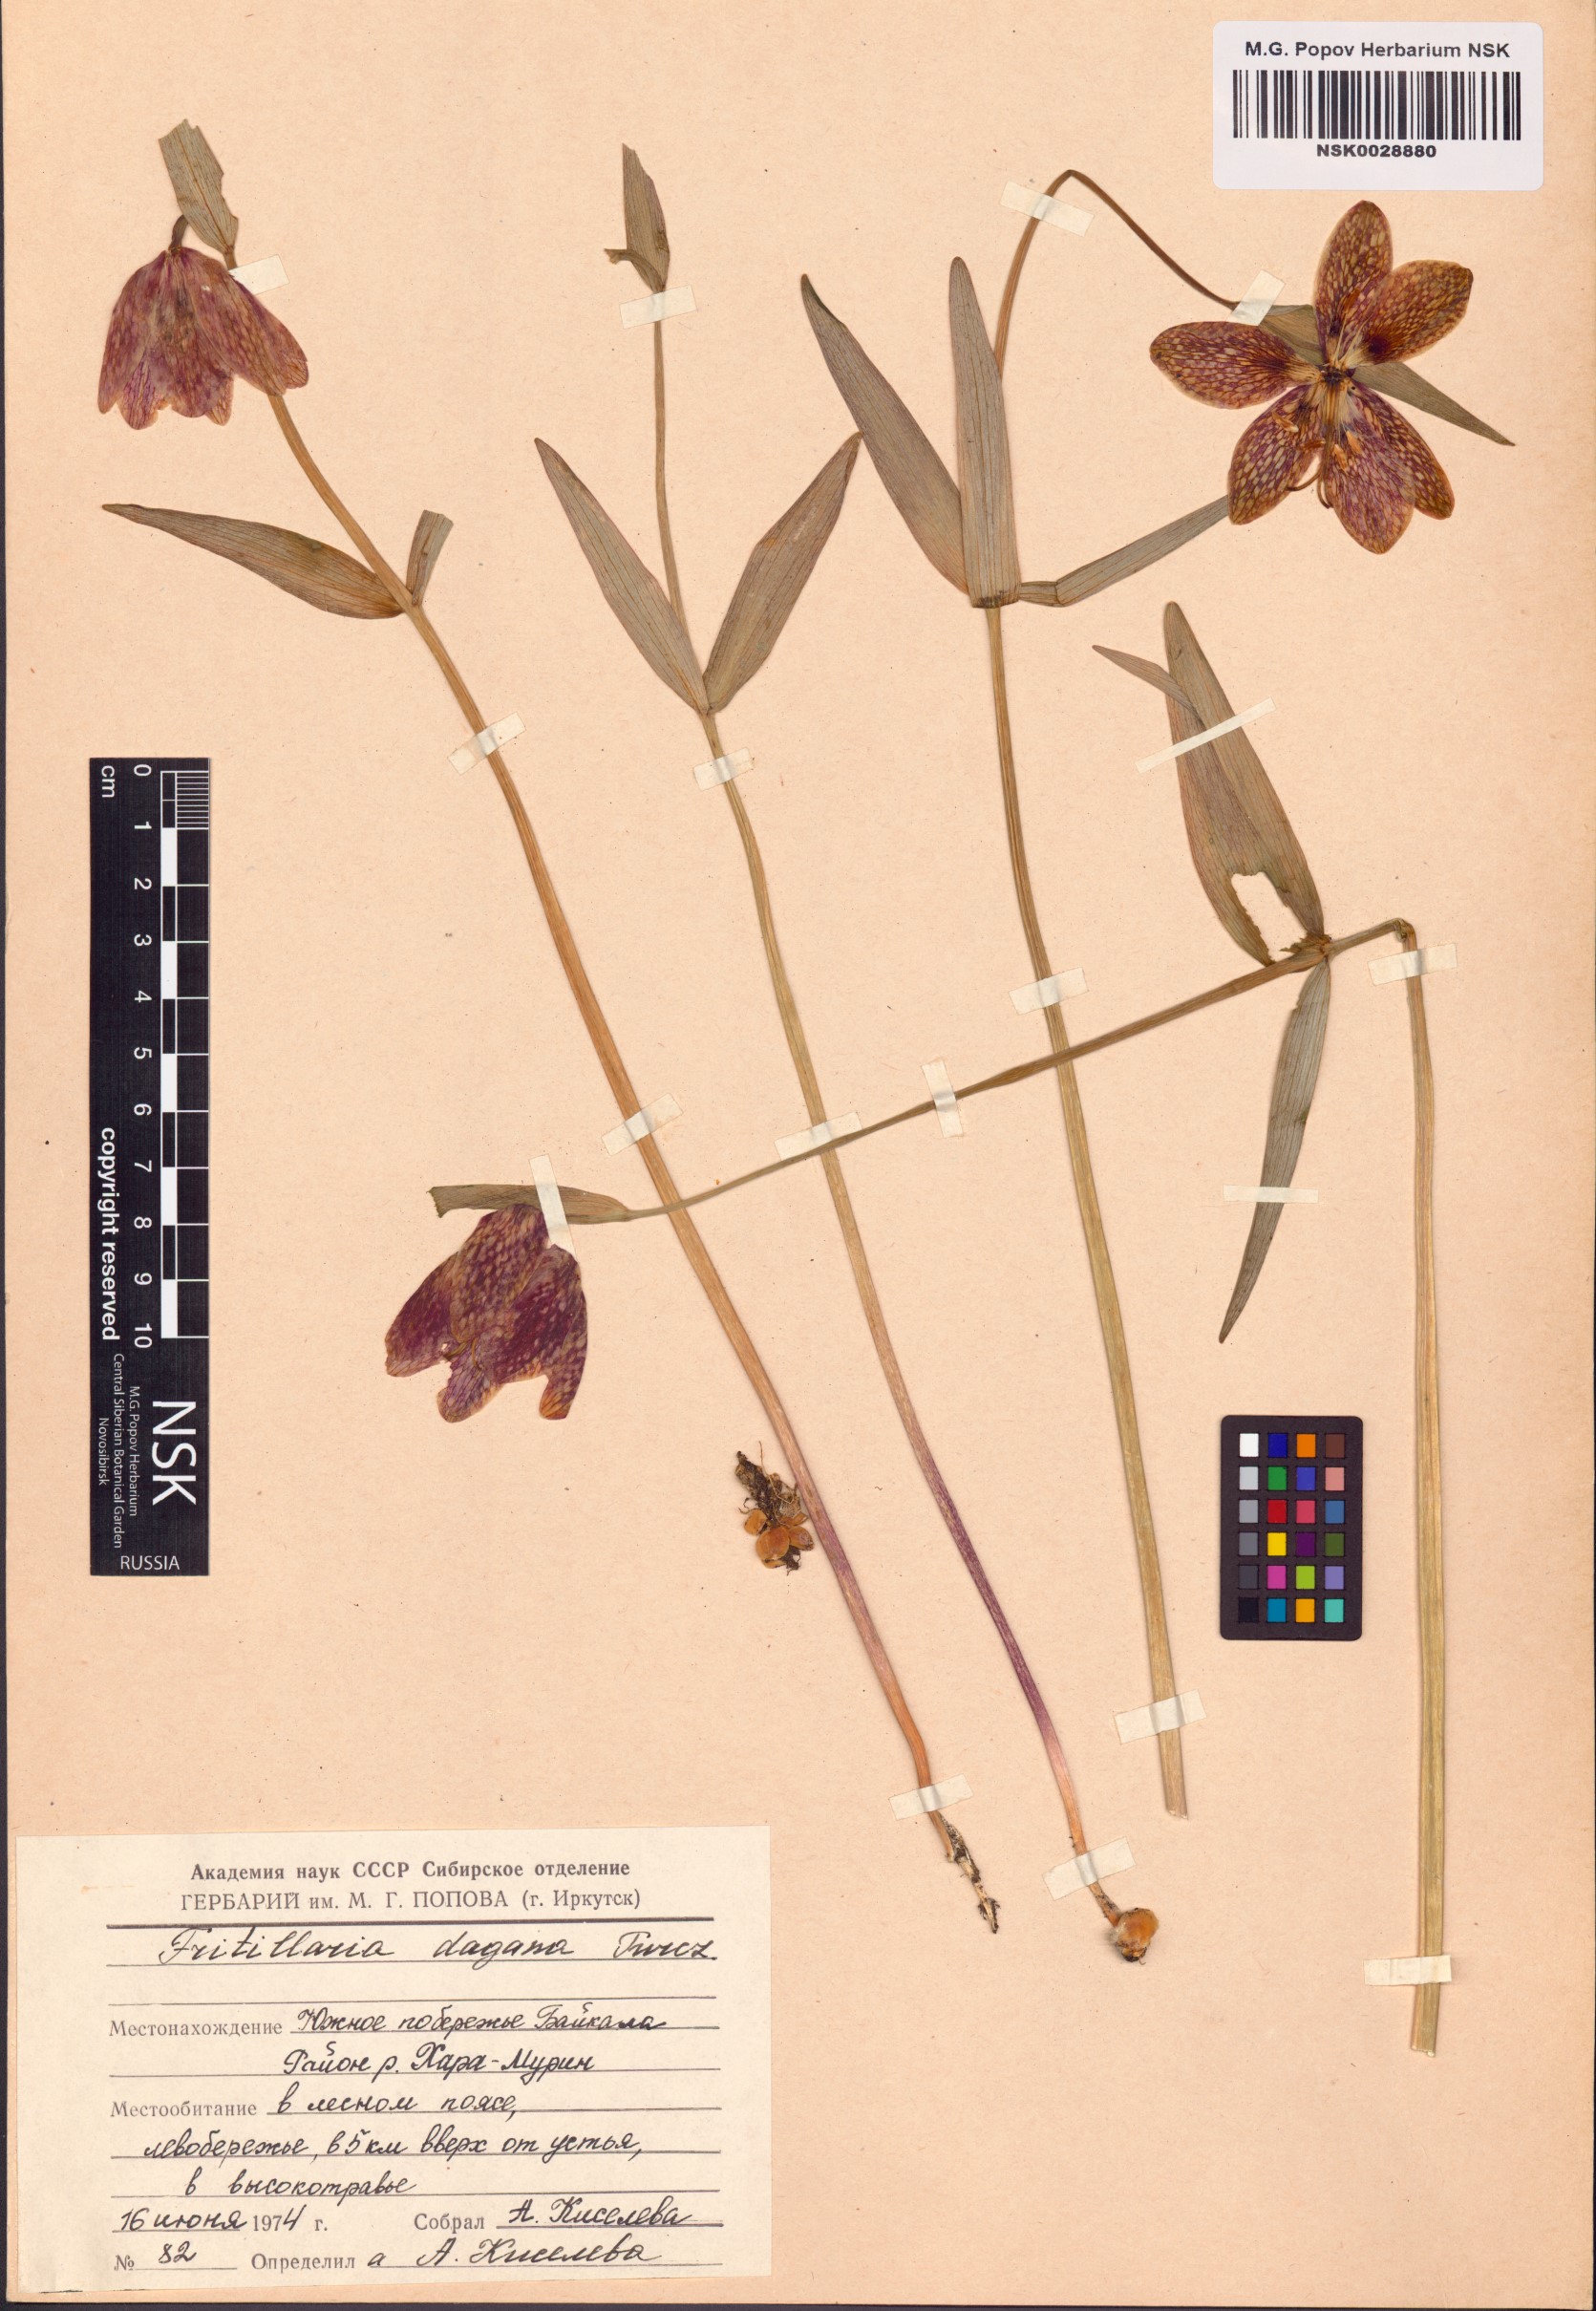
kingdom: Plantae
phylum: Tracheophyta
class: Liliopsida
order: Liliales
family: Liliaceae
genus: Fritillaria
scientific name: Fritillaria dagana
